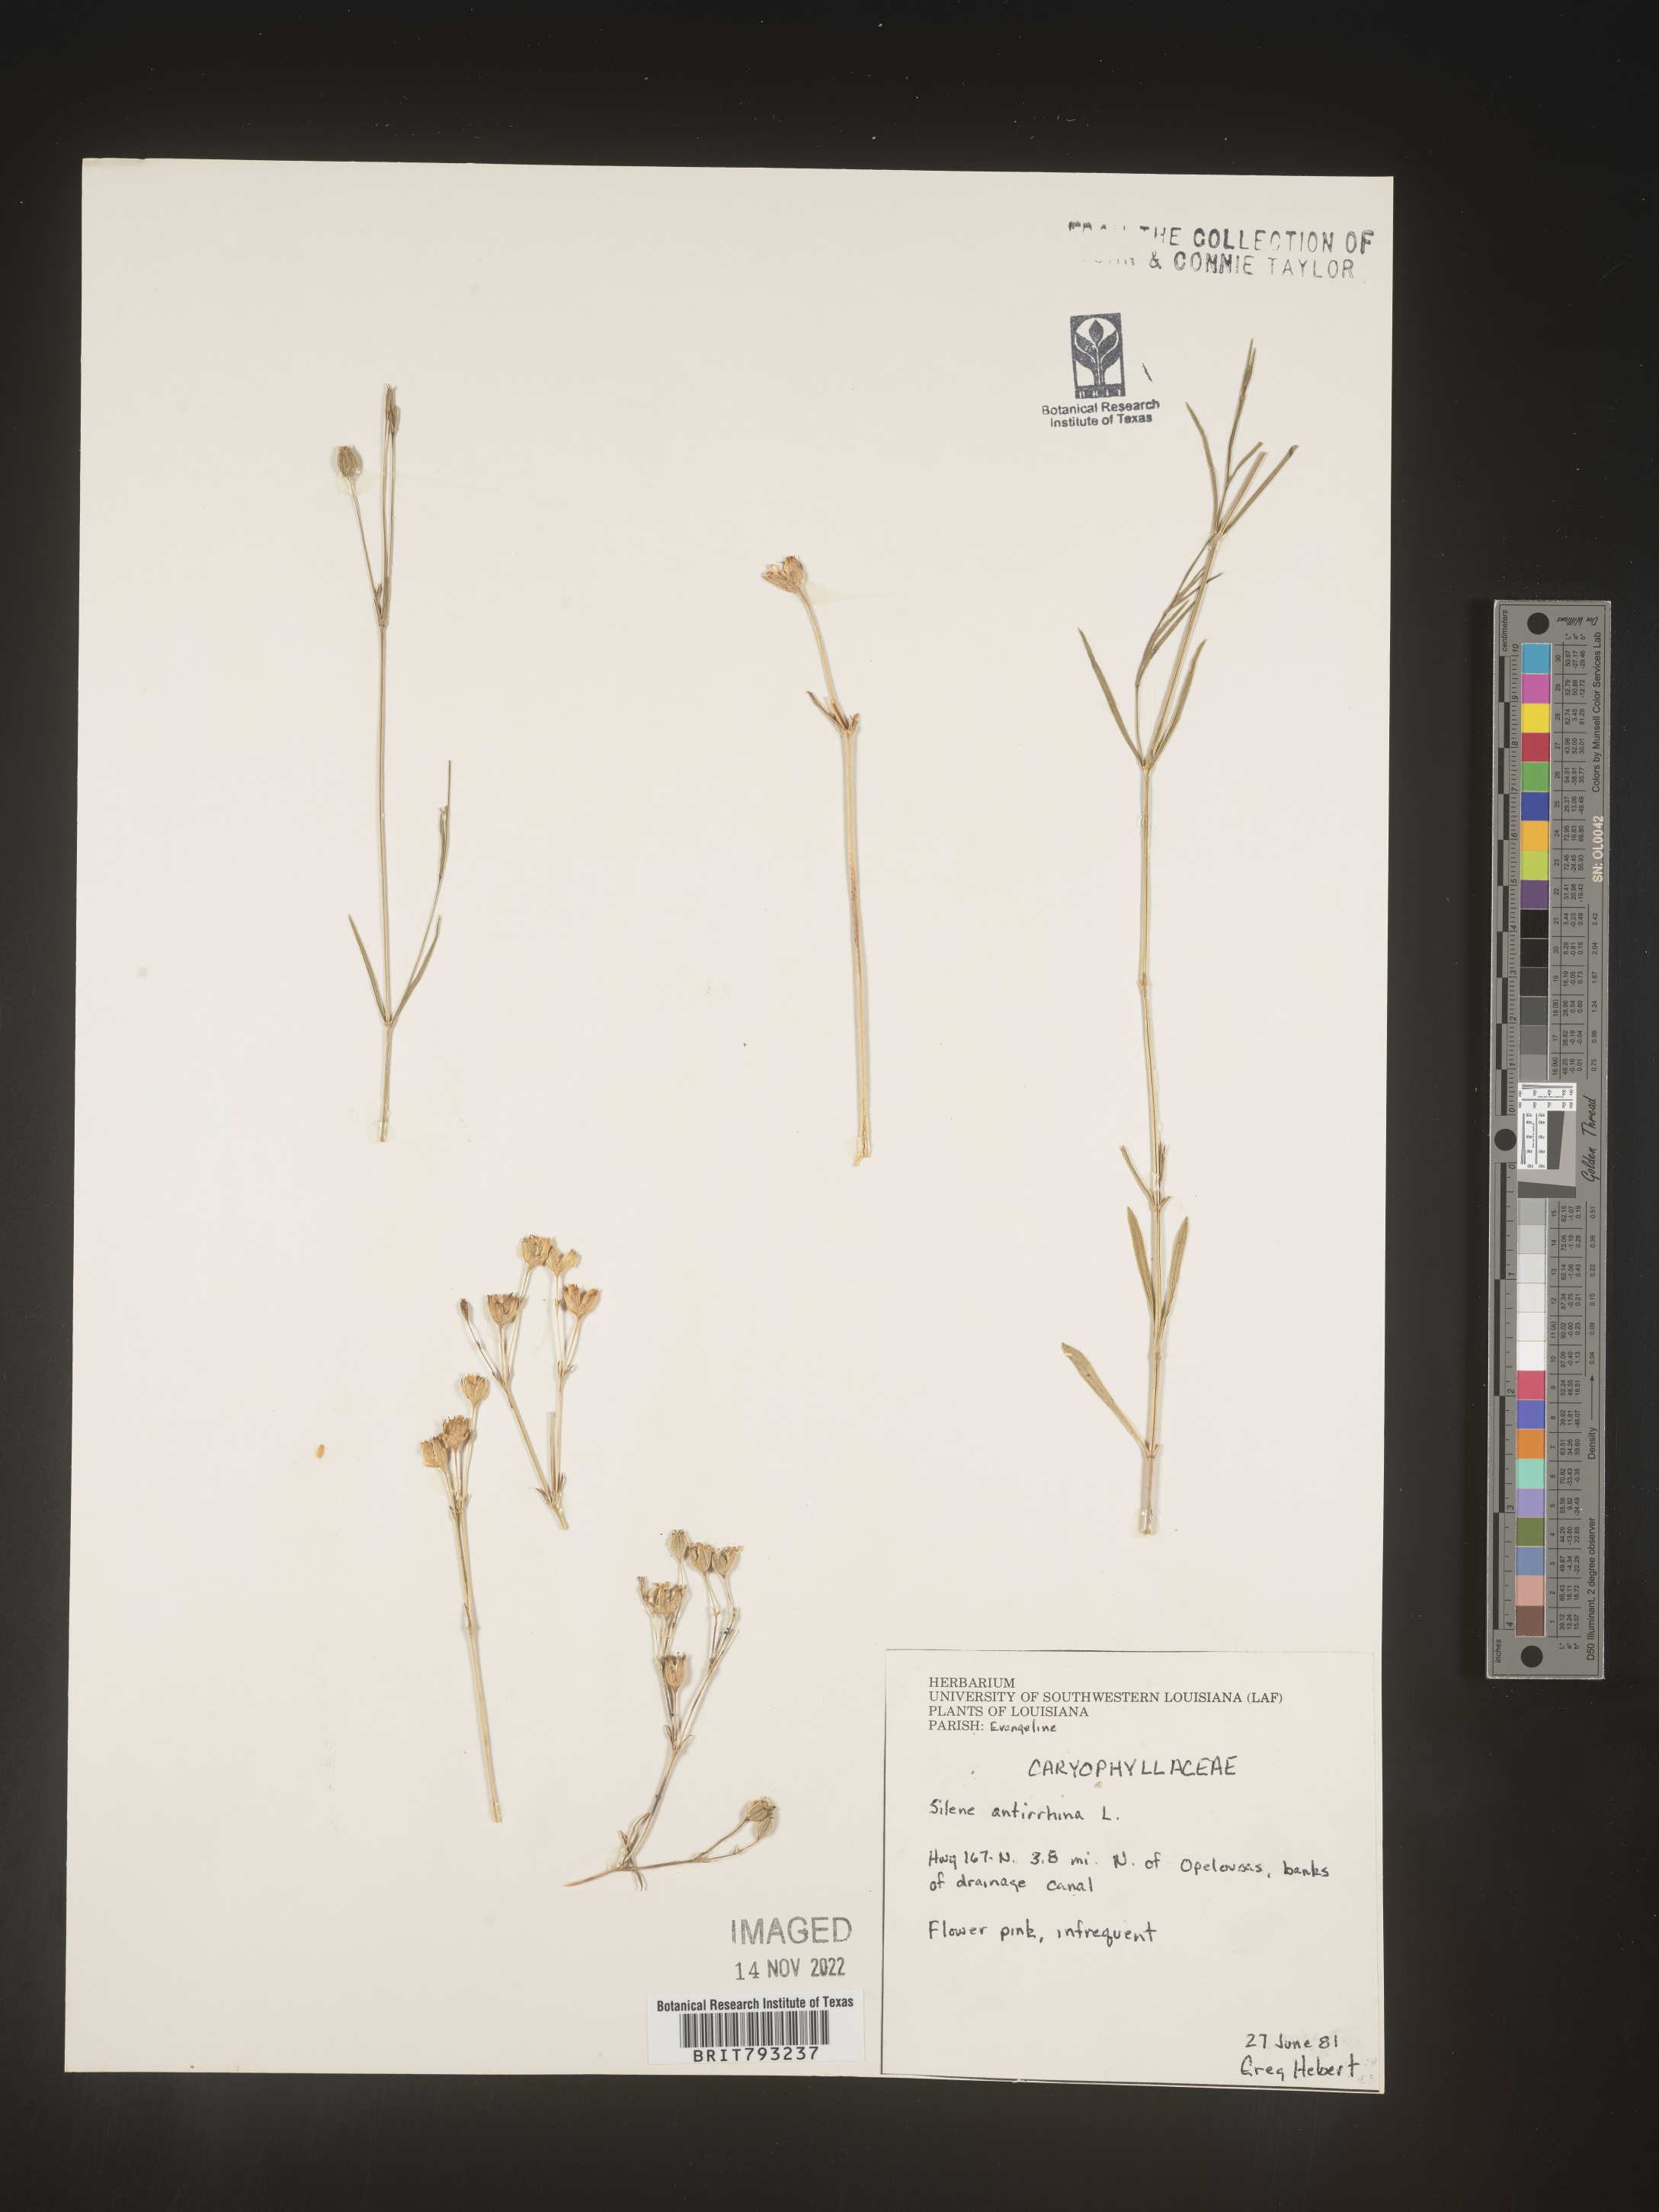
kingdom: Plantae
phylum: Tracheophyta
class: Magnoliopsida
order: Caryophyllales
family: Caryophyllaceae
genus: Silene
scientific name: Silene antirrhina
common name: Sleepy catchfly
